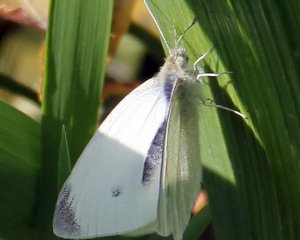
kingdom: Animalia
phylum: Arthropoda
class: Insecta
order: Lepidoptera
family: Pieridae
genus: Pieris
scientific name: Pieris rapae
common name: Cabbage White
